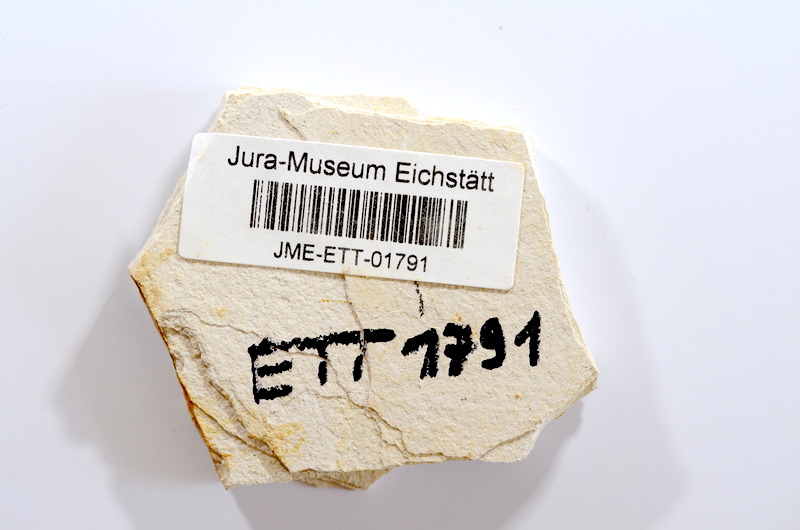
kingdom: Animalia
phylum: Chordata
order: Salmoniformes
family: Orthogonikleithridae
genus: Orthogonikleithrus
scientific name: Orthogonikleithrus hoelli
